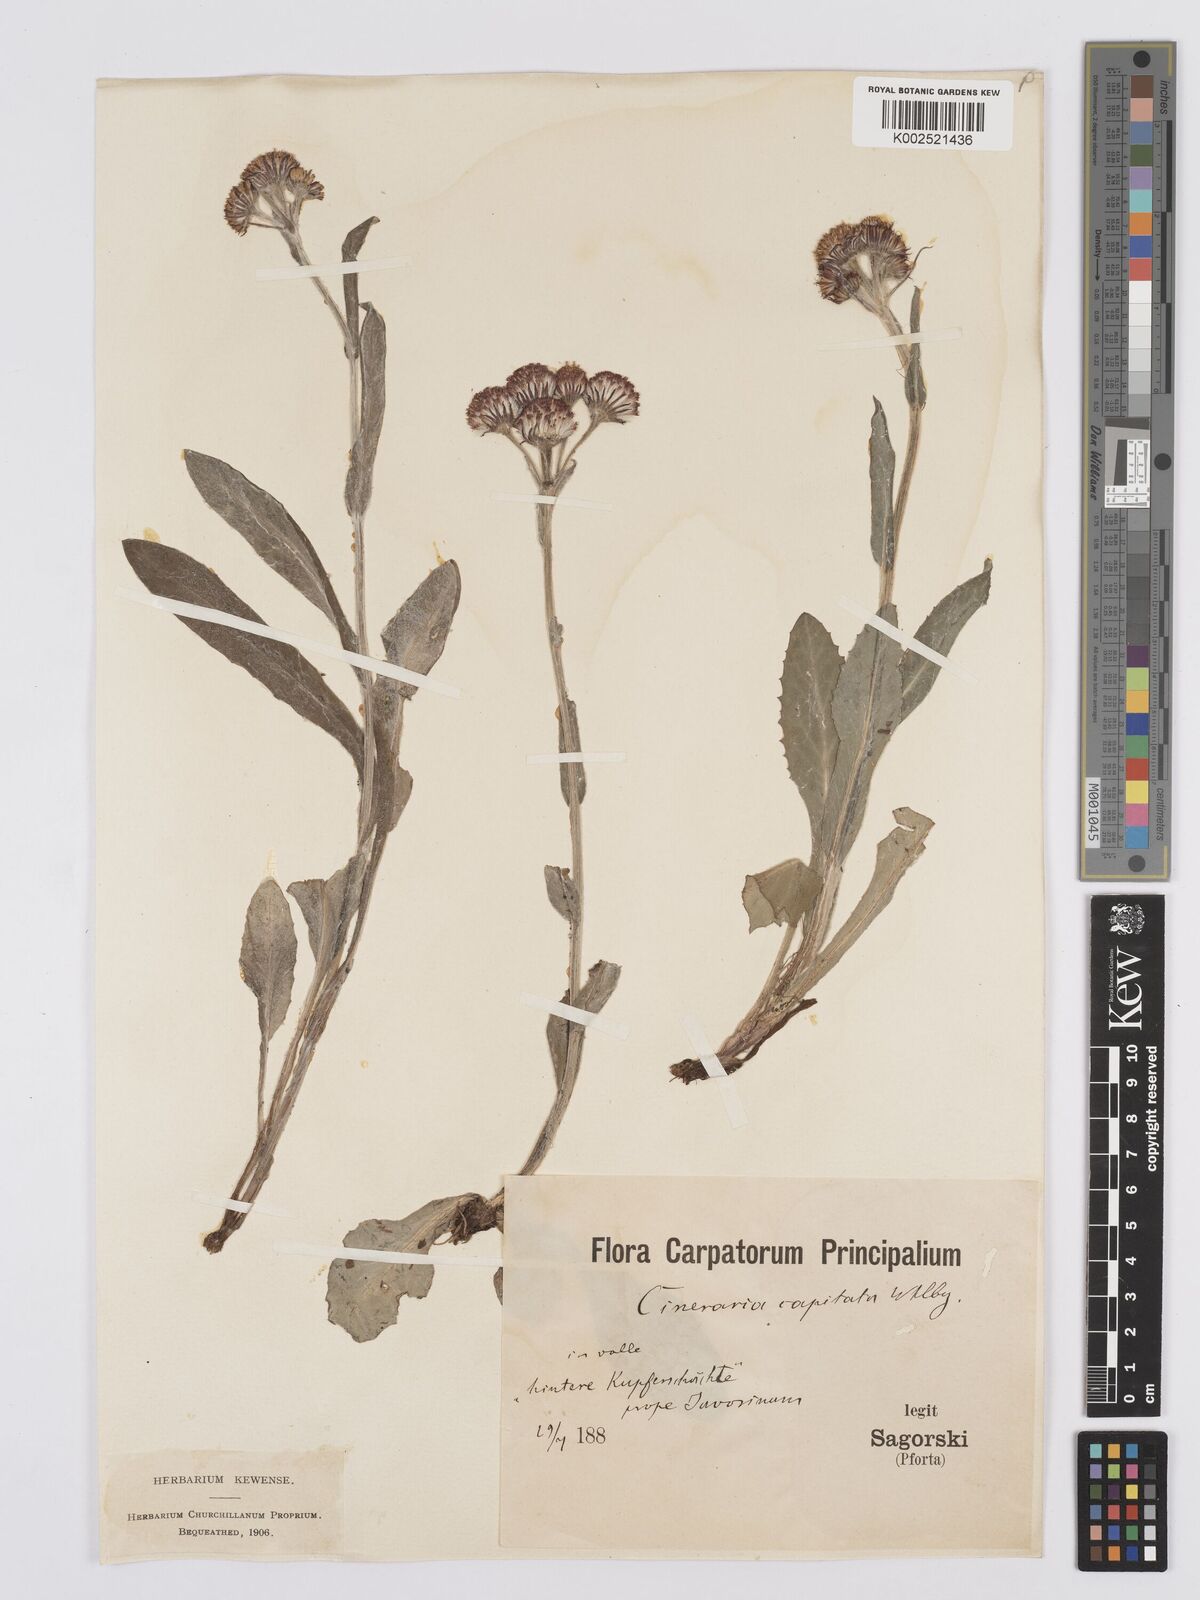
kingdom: Plantae
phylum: Tracheophyta
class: Magnoliopsida
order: Asterales
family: Asteraceae
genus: Tephroseris
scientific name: Tephroseris aurantiaca
